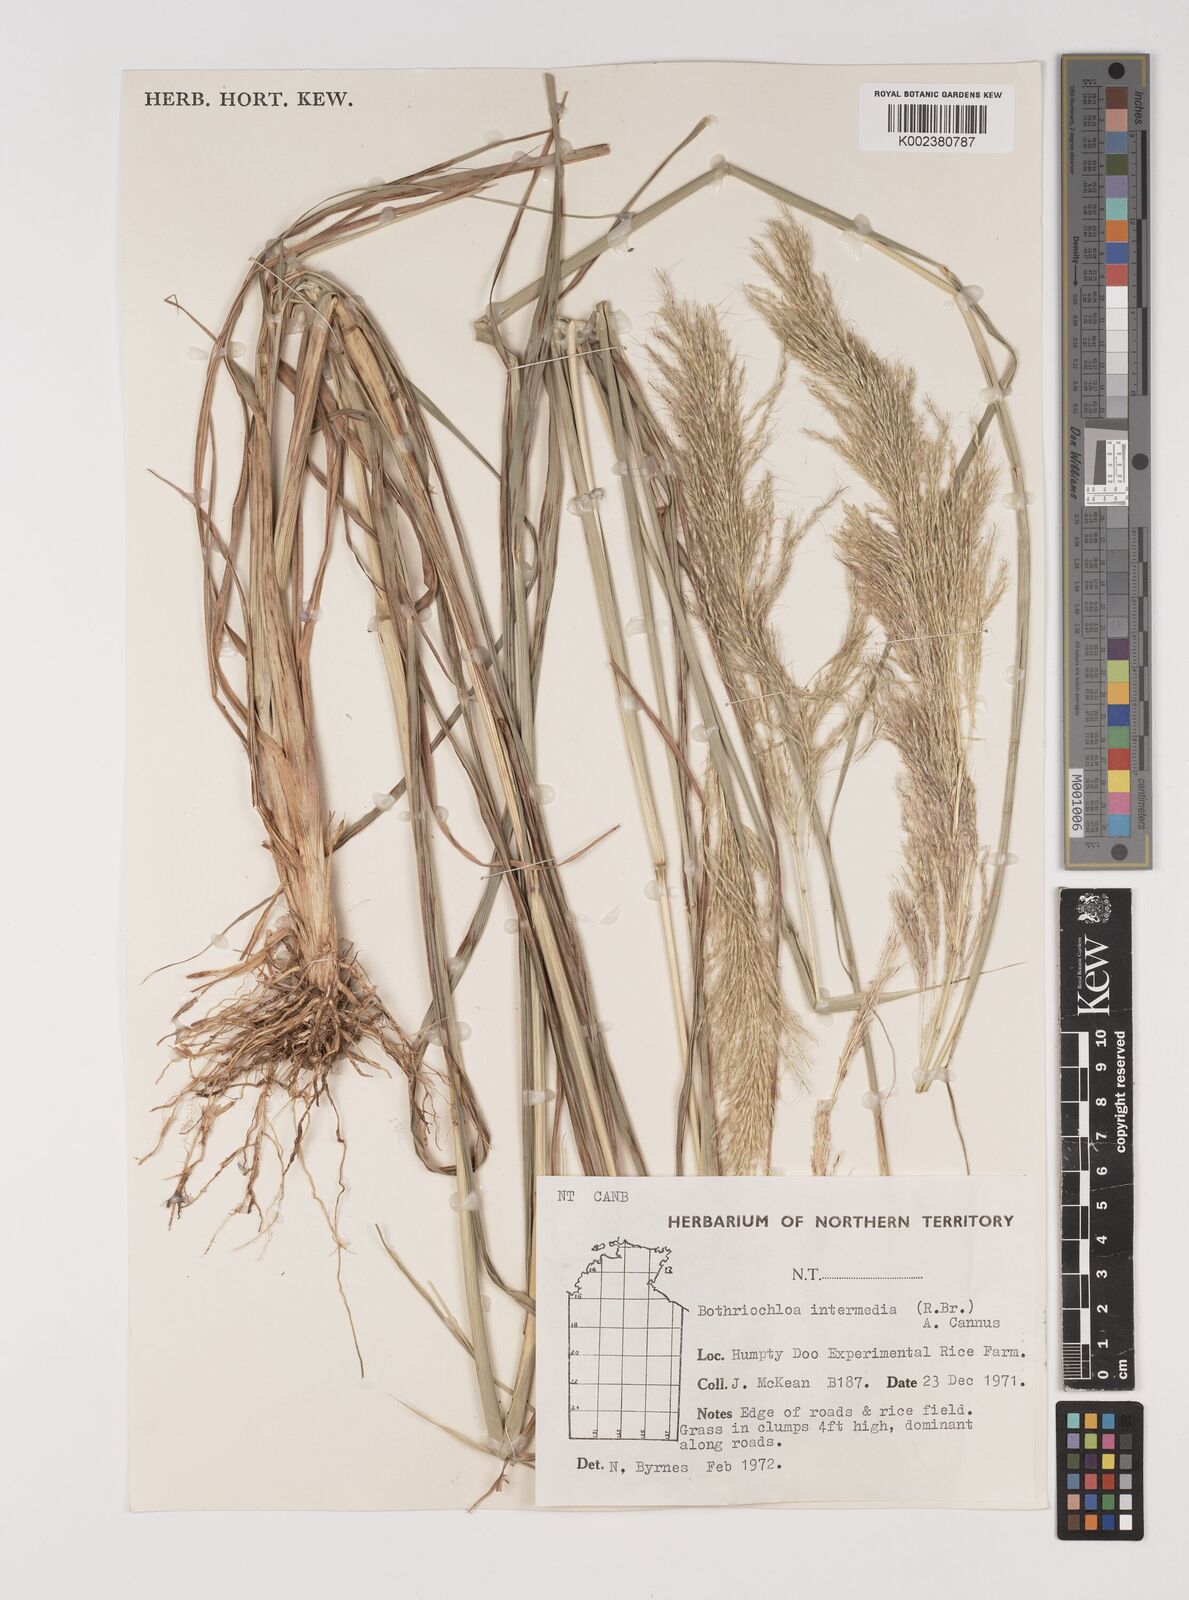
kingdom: Plantae
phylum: Tracheophyta
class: Liliopsida
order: Poales
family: Poaceae
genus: Bothriochloa
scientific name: Bothriochloa bladhii
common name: Caucasian bluestem
